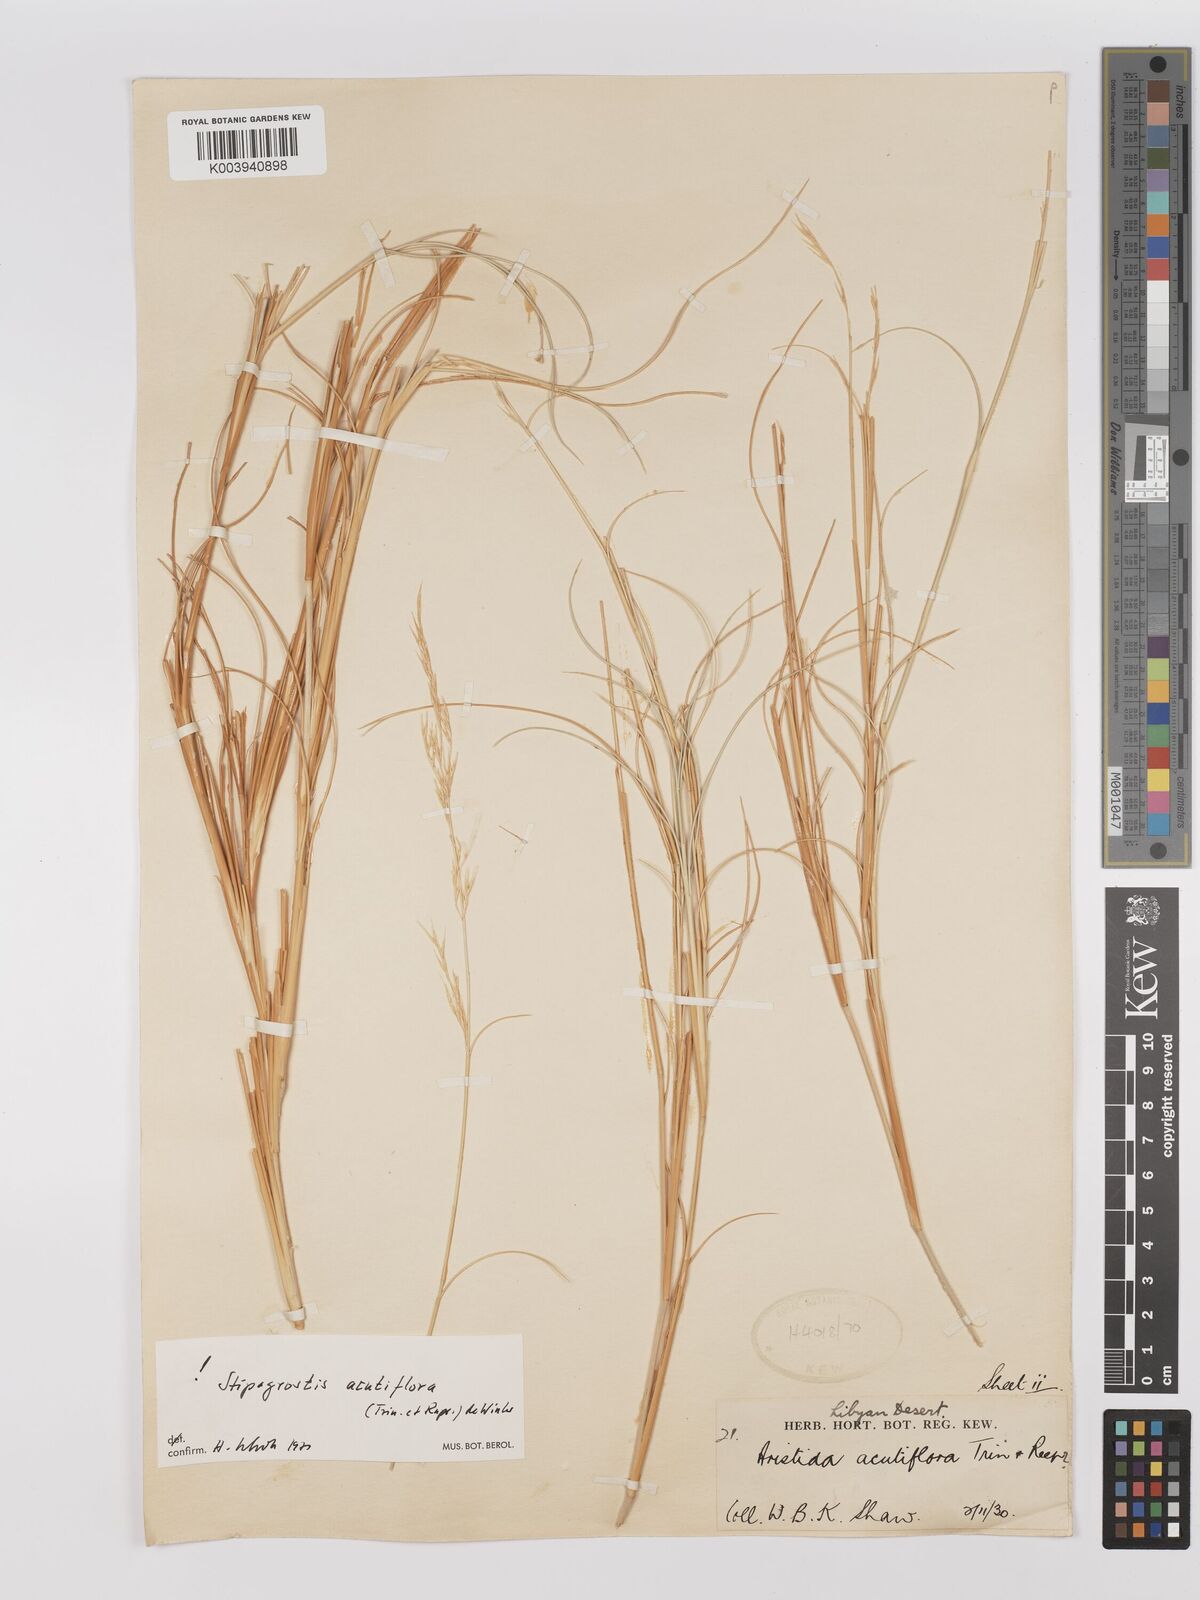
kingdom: Plantae
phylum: Tracheophyta
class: Liliopsida
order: Poales
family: Poaceae
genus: Stipagrostis
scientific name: Stipagrostis acutiflora
